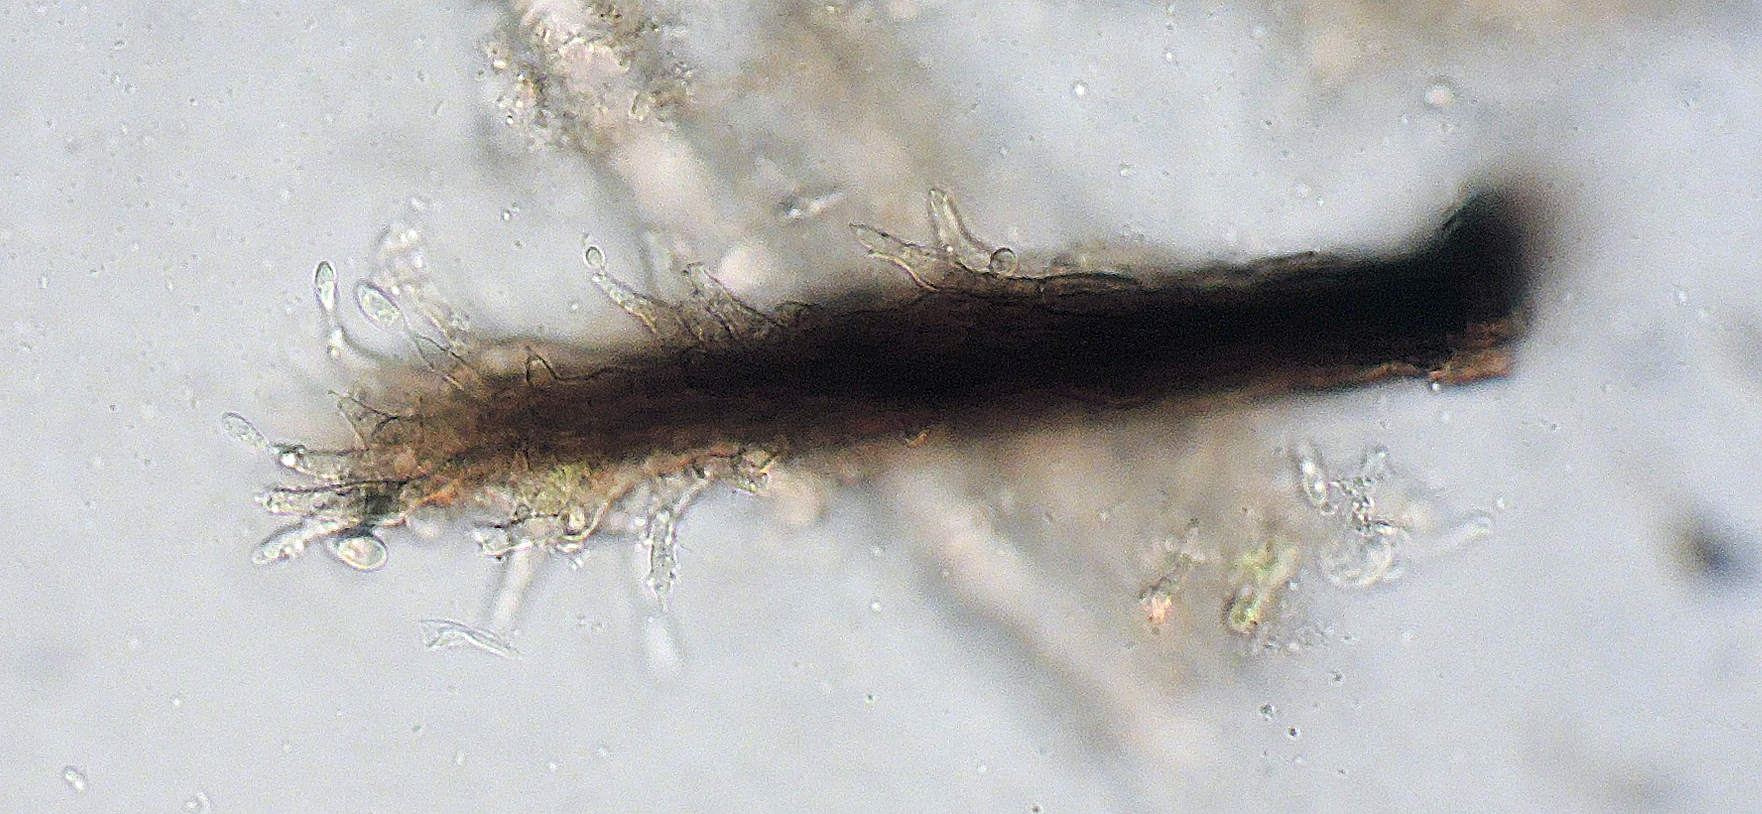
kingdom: Fungi
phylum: Ascomycota
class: Sordariomycetes
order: Xylariales
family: Diatrypaceae
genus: Phaeoisaria
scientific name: Phaeoisaria clematidis
